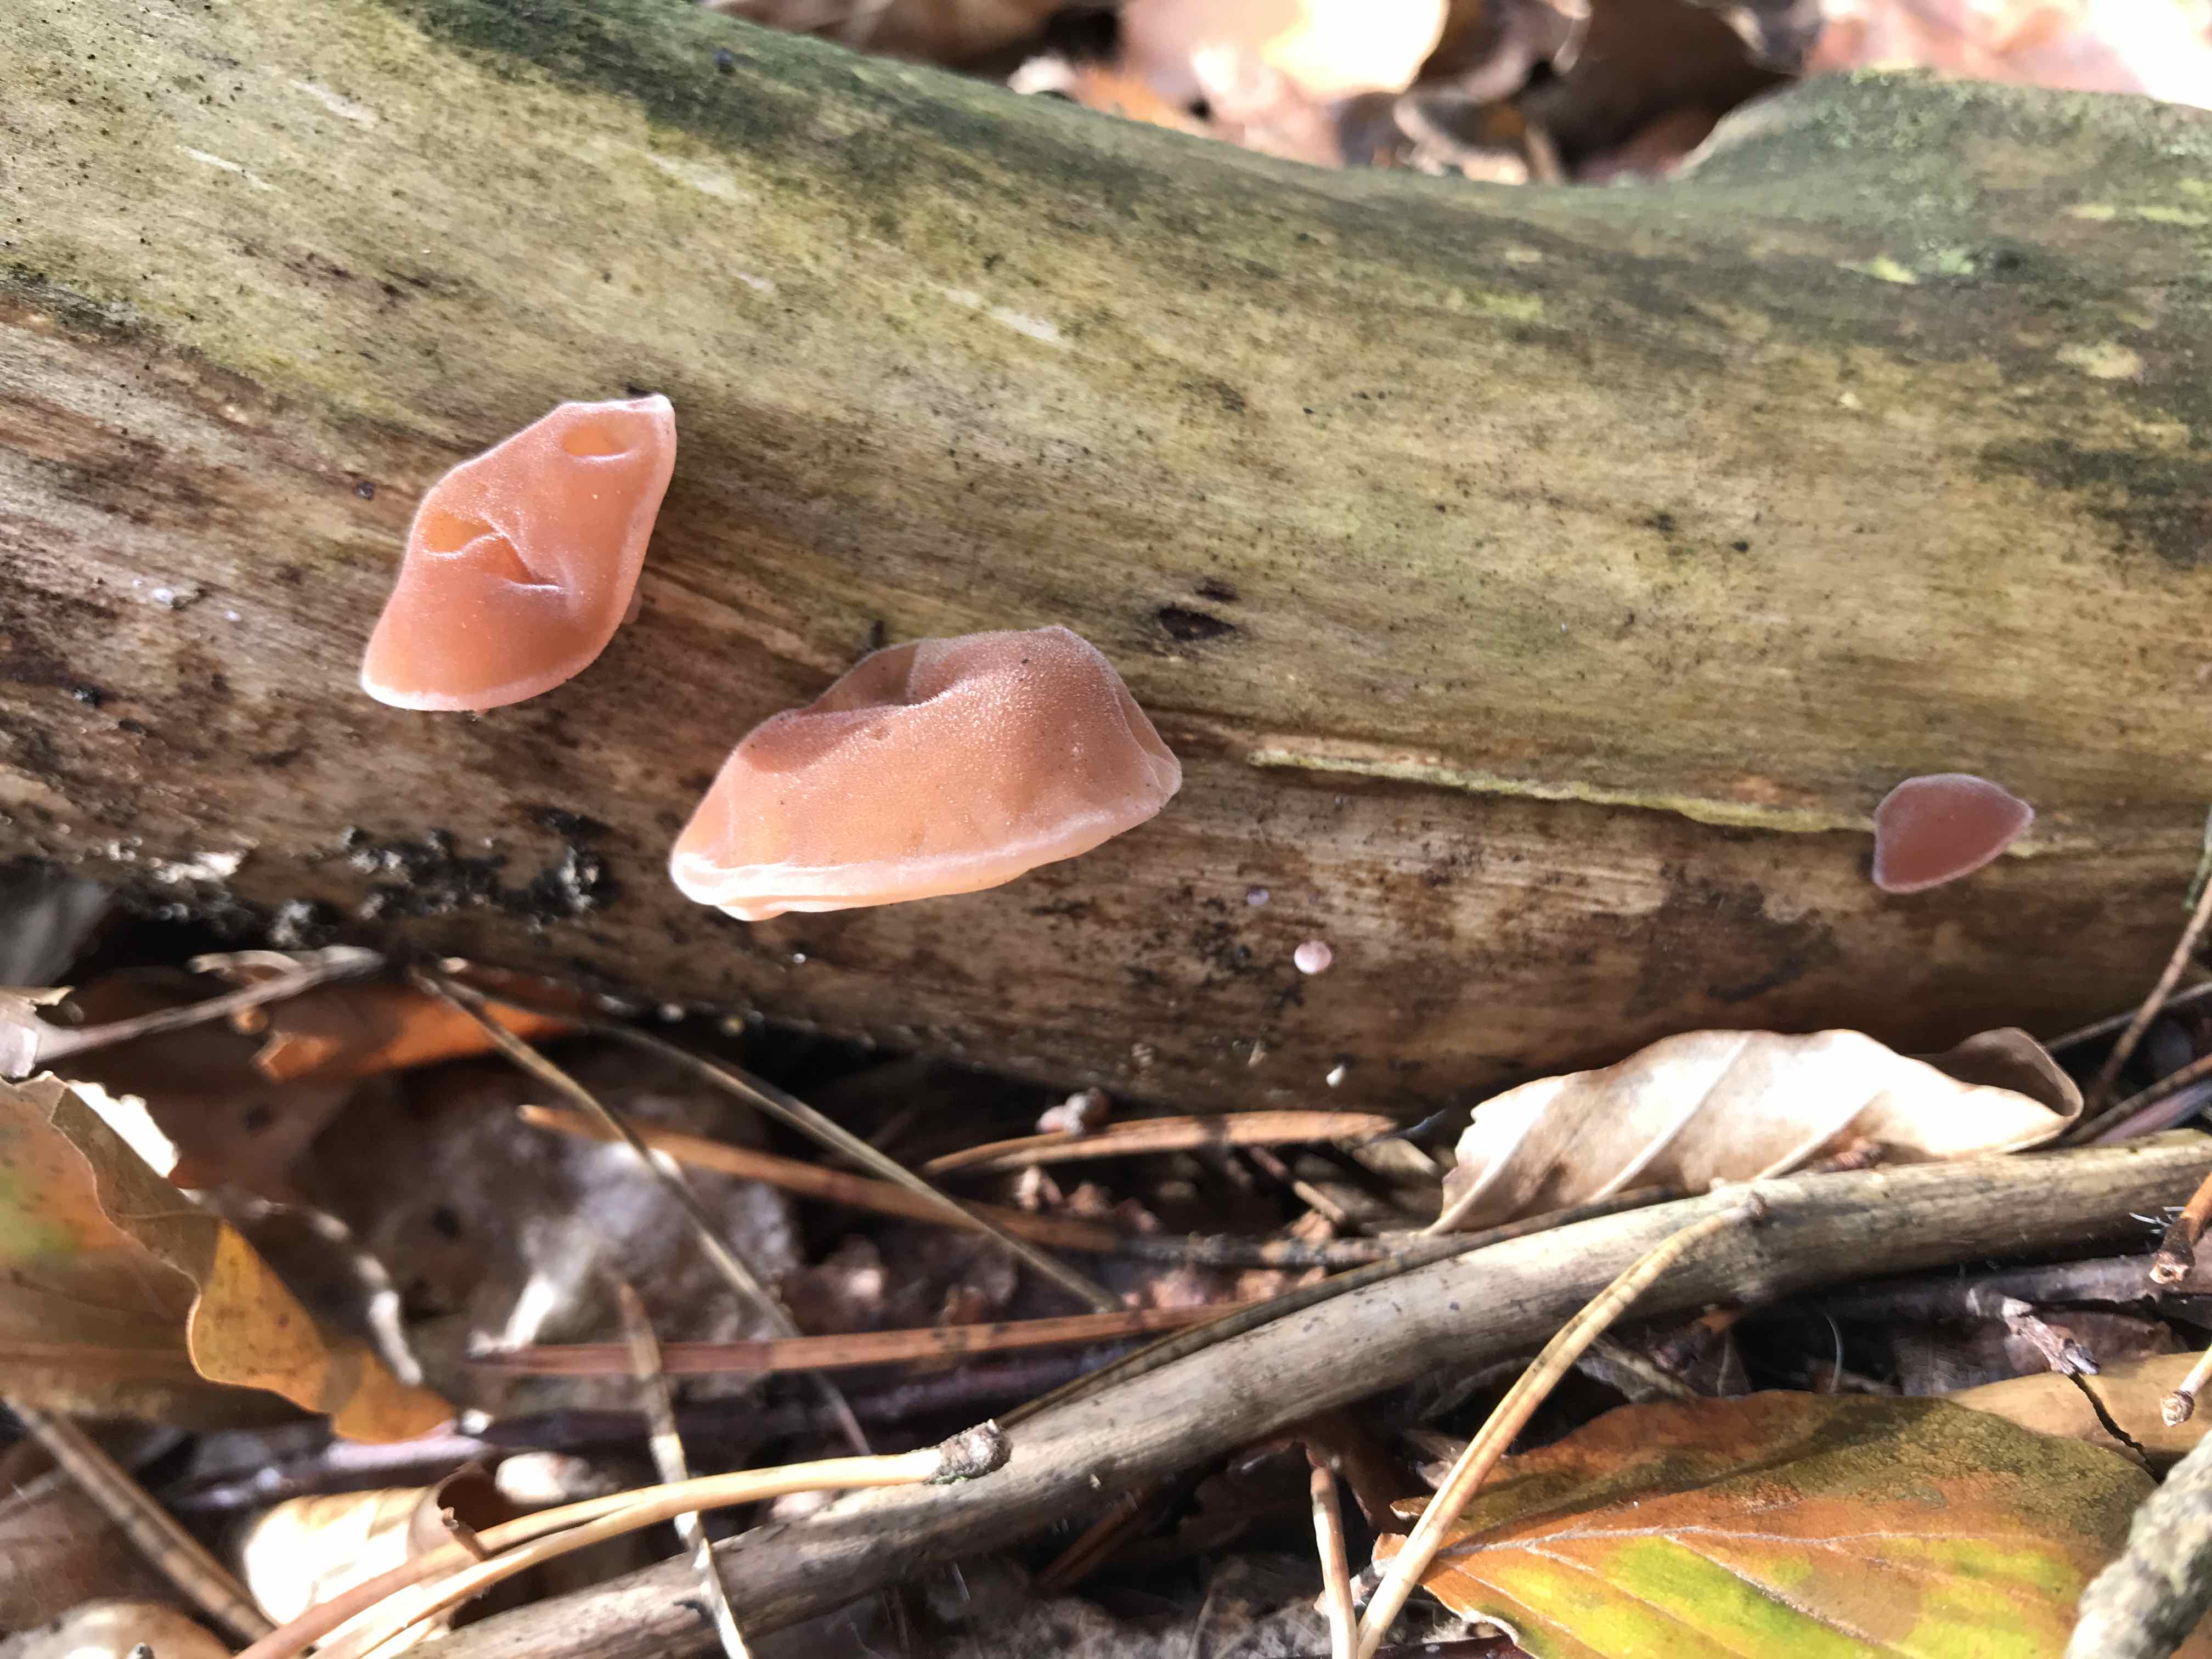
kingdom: Fungi
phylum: Basidiomycota
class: Agaricomycetes
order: Auriculariales
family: Auriculariaceae
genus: Auricularia
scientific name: Auricularia auricula-judae
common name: almindelig judasøre
